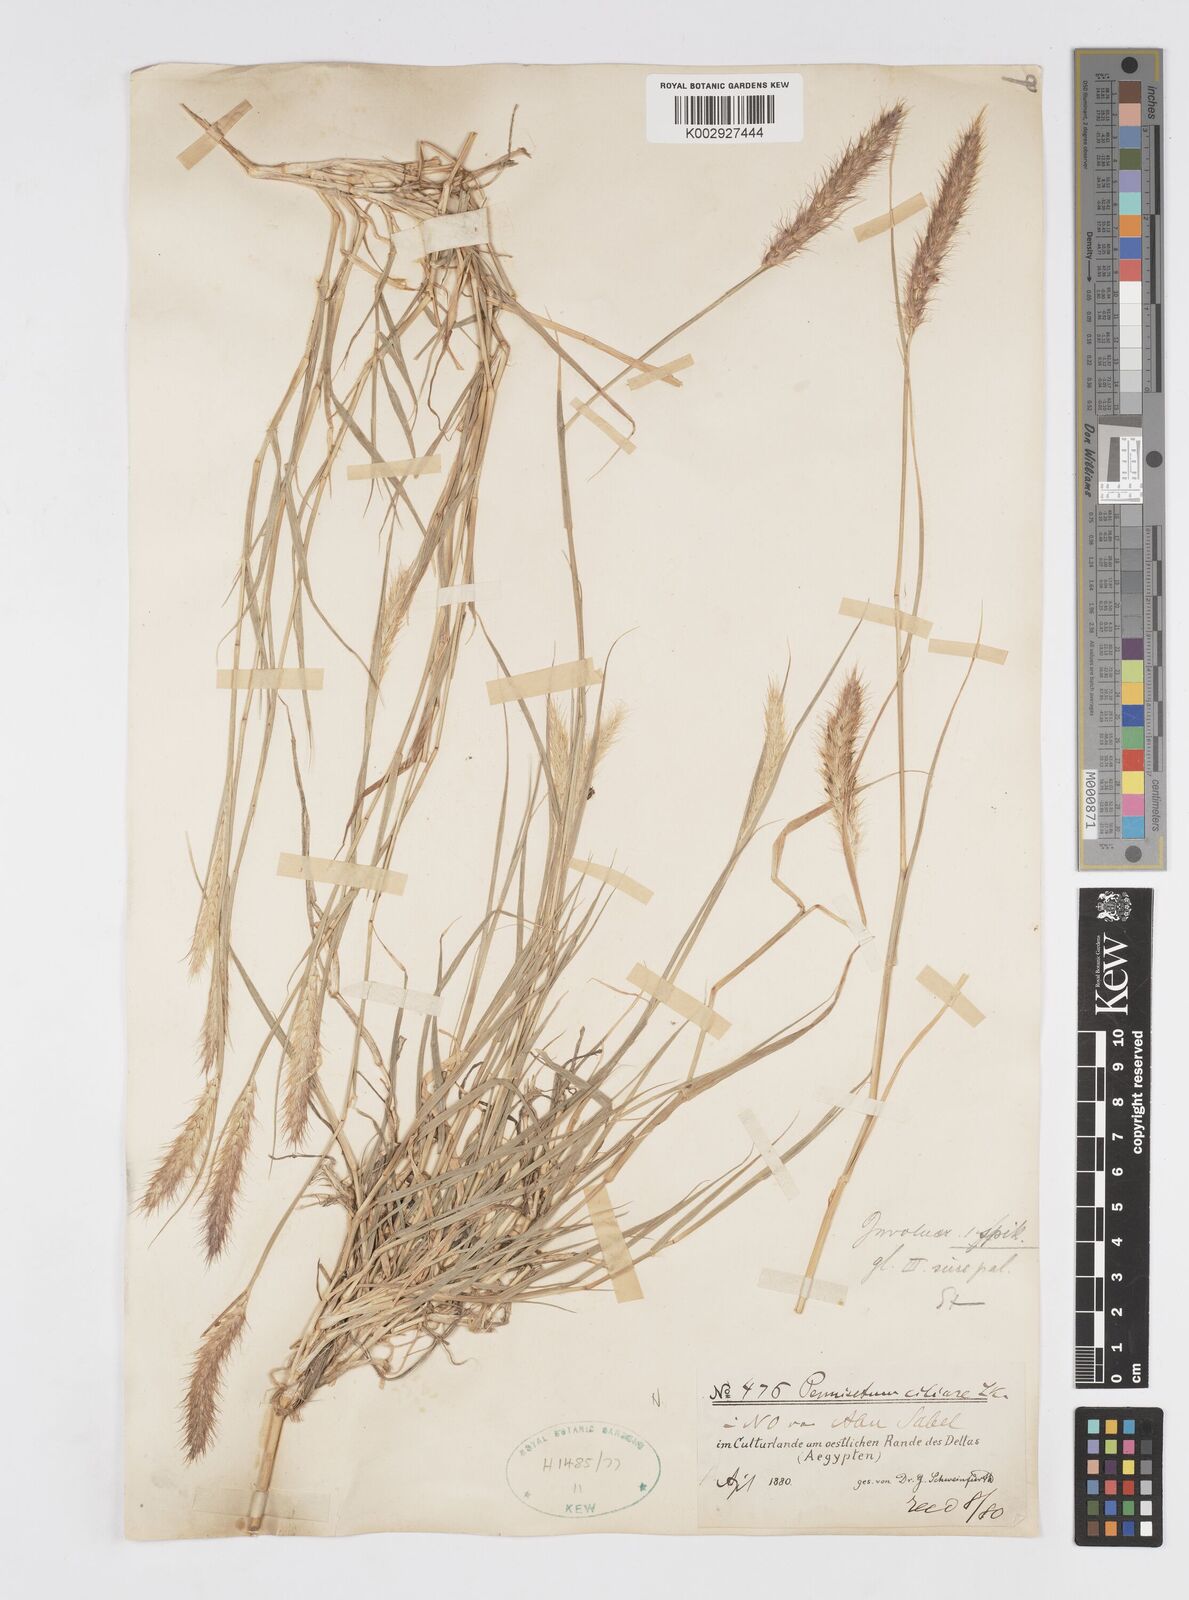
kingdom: Plantae
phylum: Tracheophyta
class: Liliopsida
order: Poales
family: Poaceae
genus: Cenchrus
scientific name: Cenchrus ciliaris
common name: Buffelgrass
